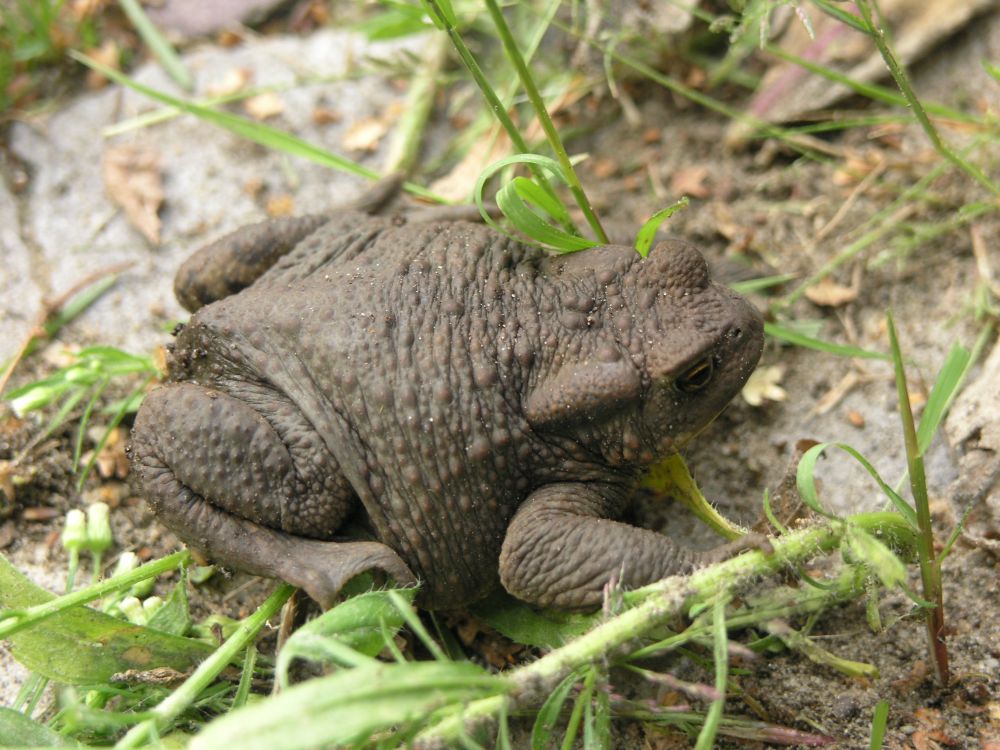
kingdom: Animalia
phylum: Chordata
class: Amphibia
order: Anura
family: Bufonidae
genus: Bufo
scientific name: Bufo bufo
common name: Common toad
